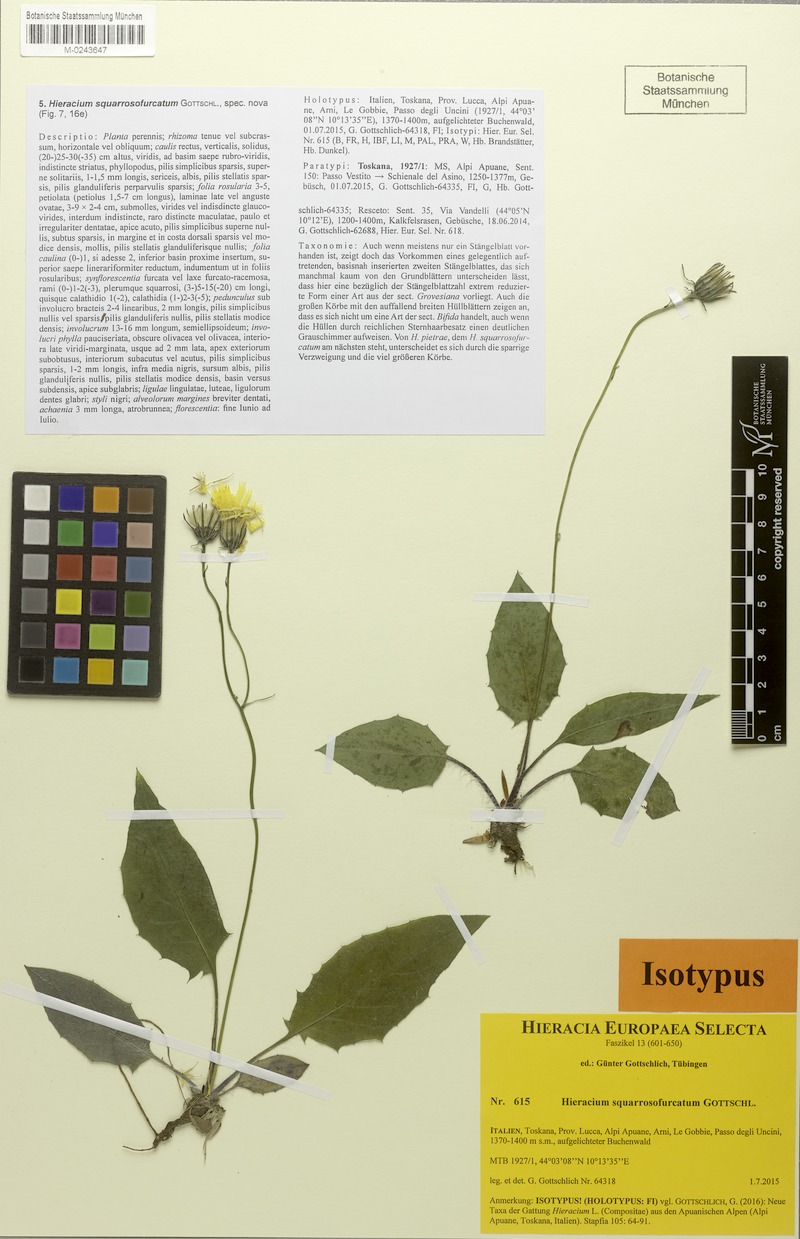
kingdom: Plantae
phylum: Tracheophyta
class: Magnoliopsida
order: Asterales
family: Asteraceae
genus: Hieracium
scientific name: Hieracium squarrosofurcatum
